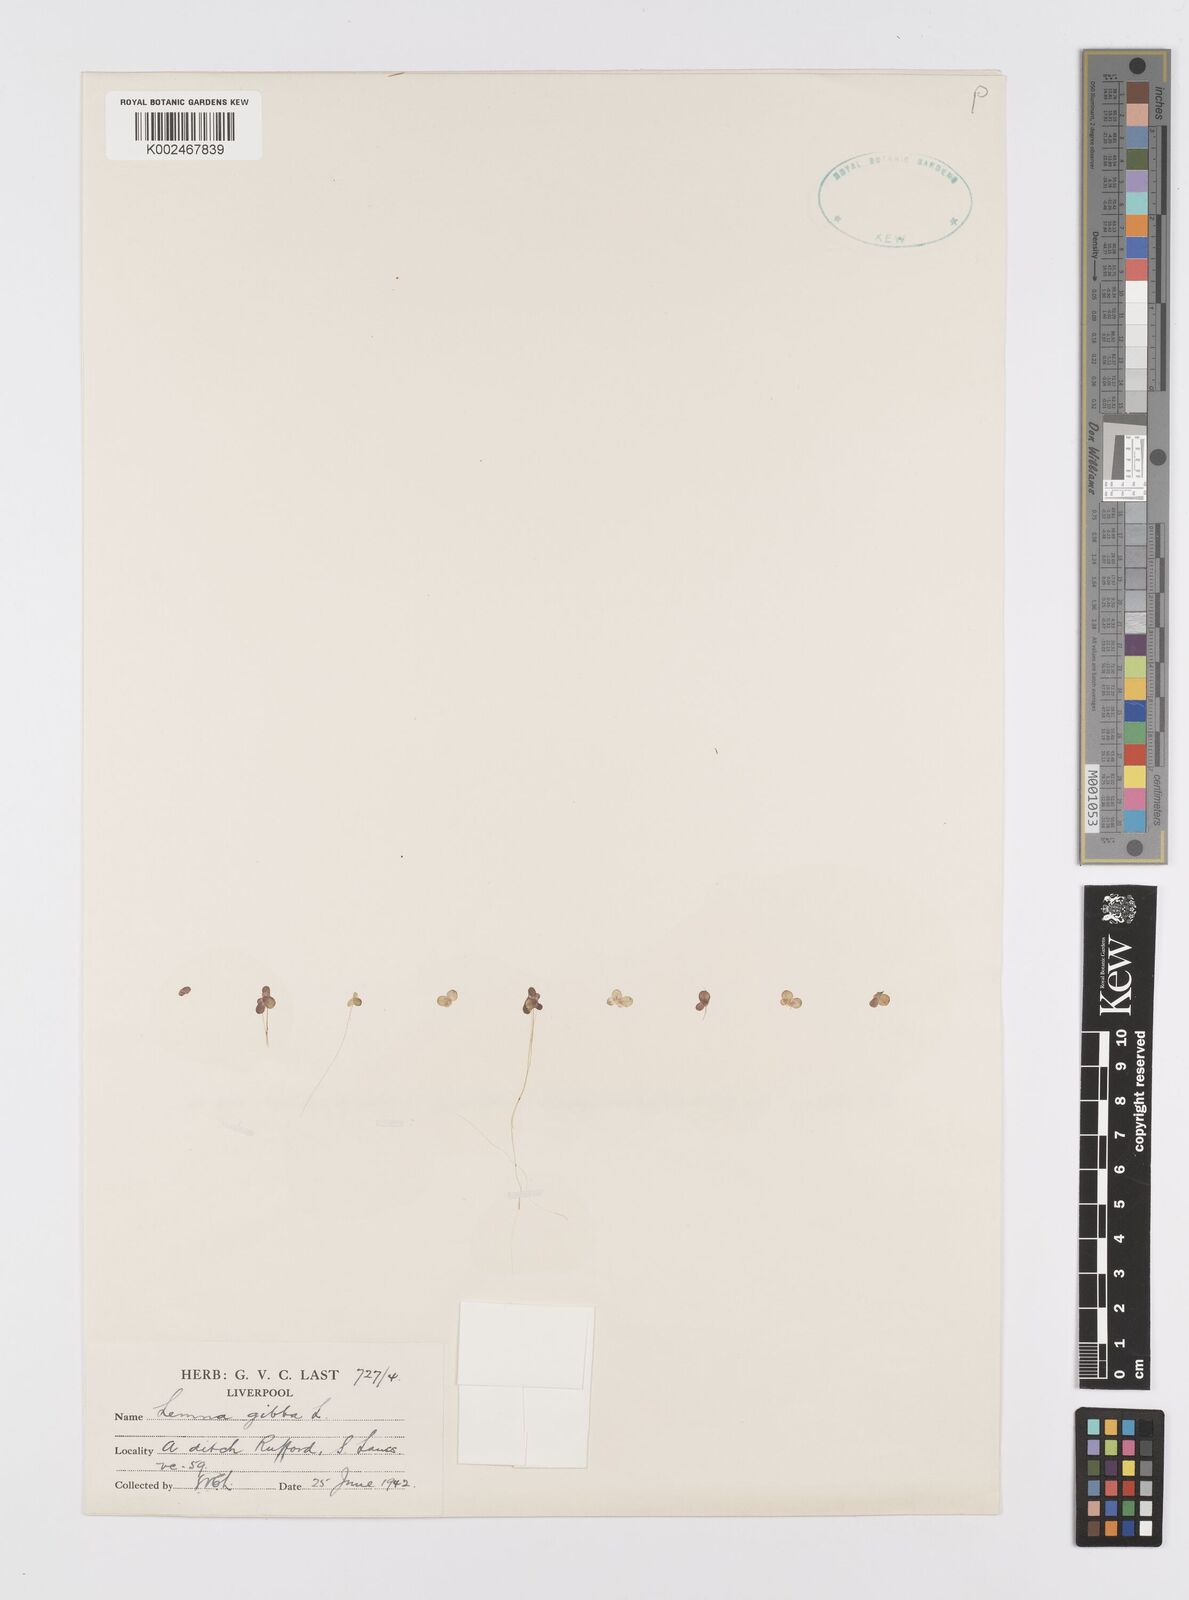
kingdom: Plantae
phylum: Tracheophyta
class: Liliopsida
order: Alismatales
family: Araceae
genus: Lemna
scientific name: Lemna gibba
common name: Fat duckweed
